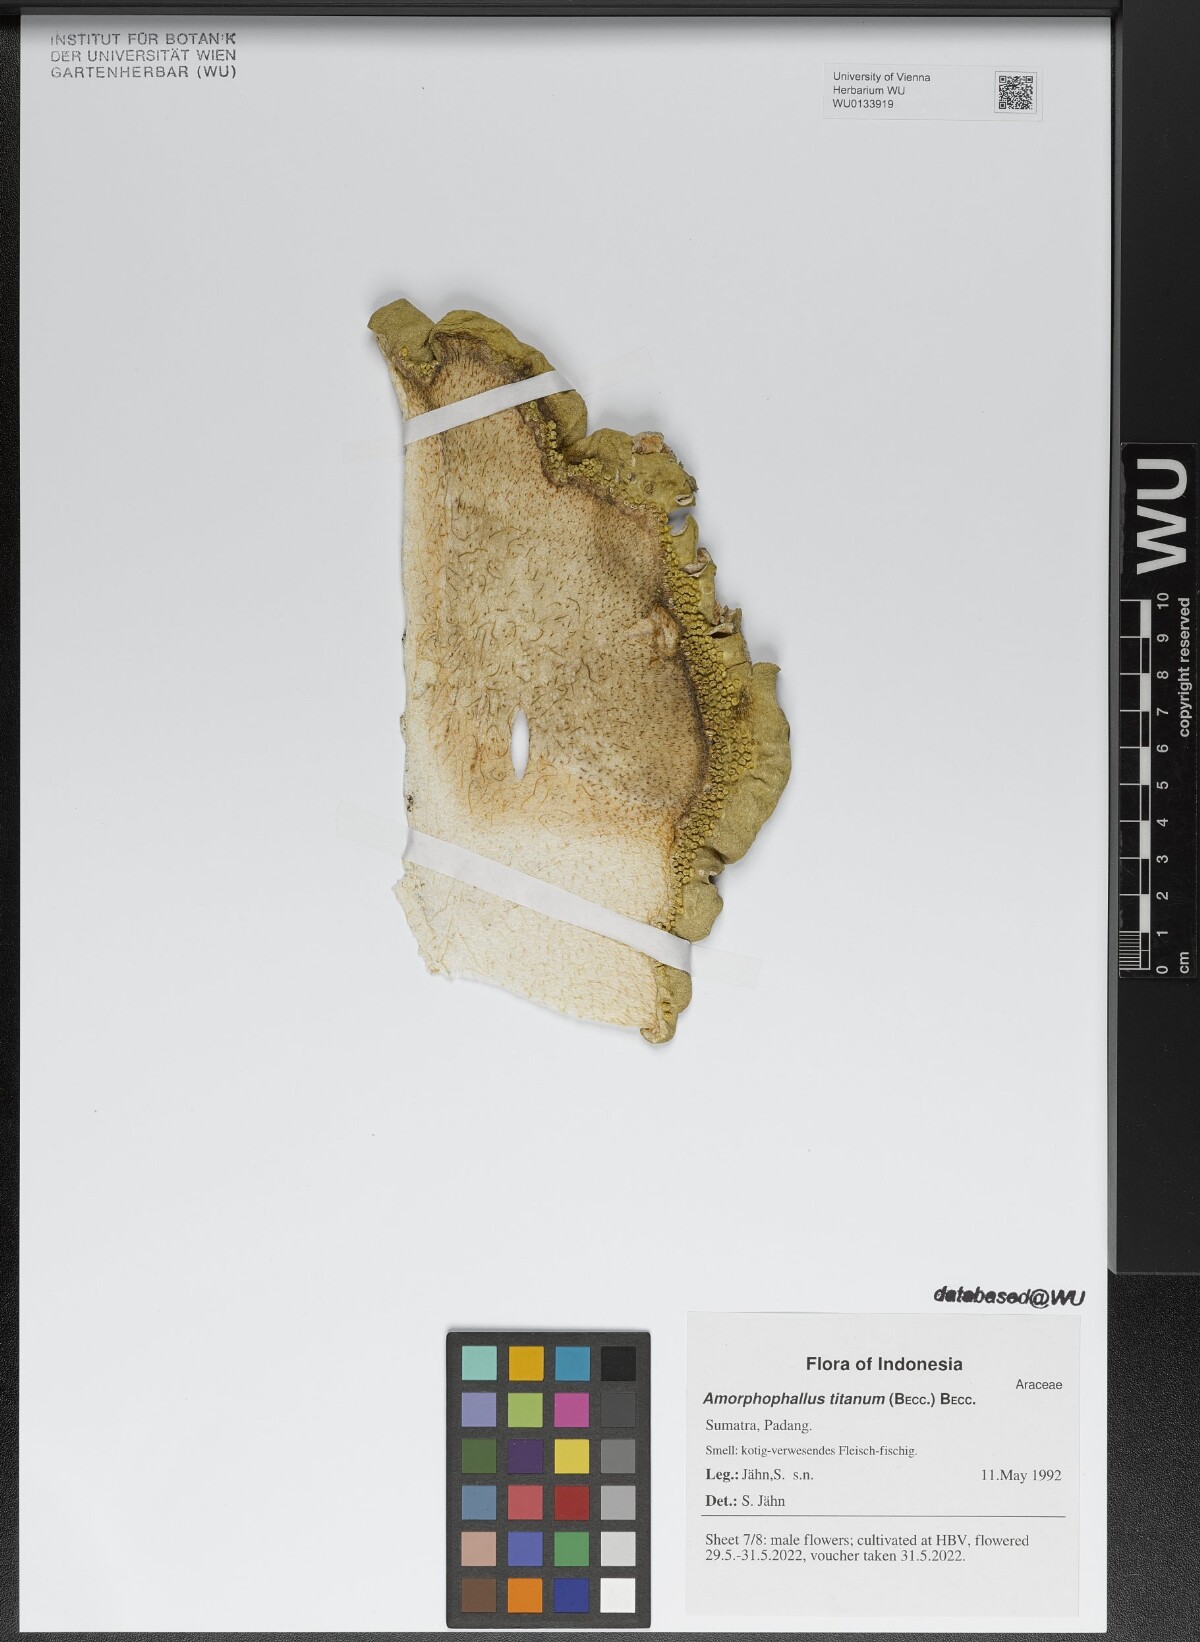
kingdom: Plantae
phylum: Tracheophyta
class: Liliopsida
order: Alismatales
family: Araceae
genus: Amorphophallus
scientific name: Amorphophallus titanum
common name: Titan arum
